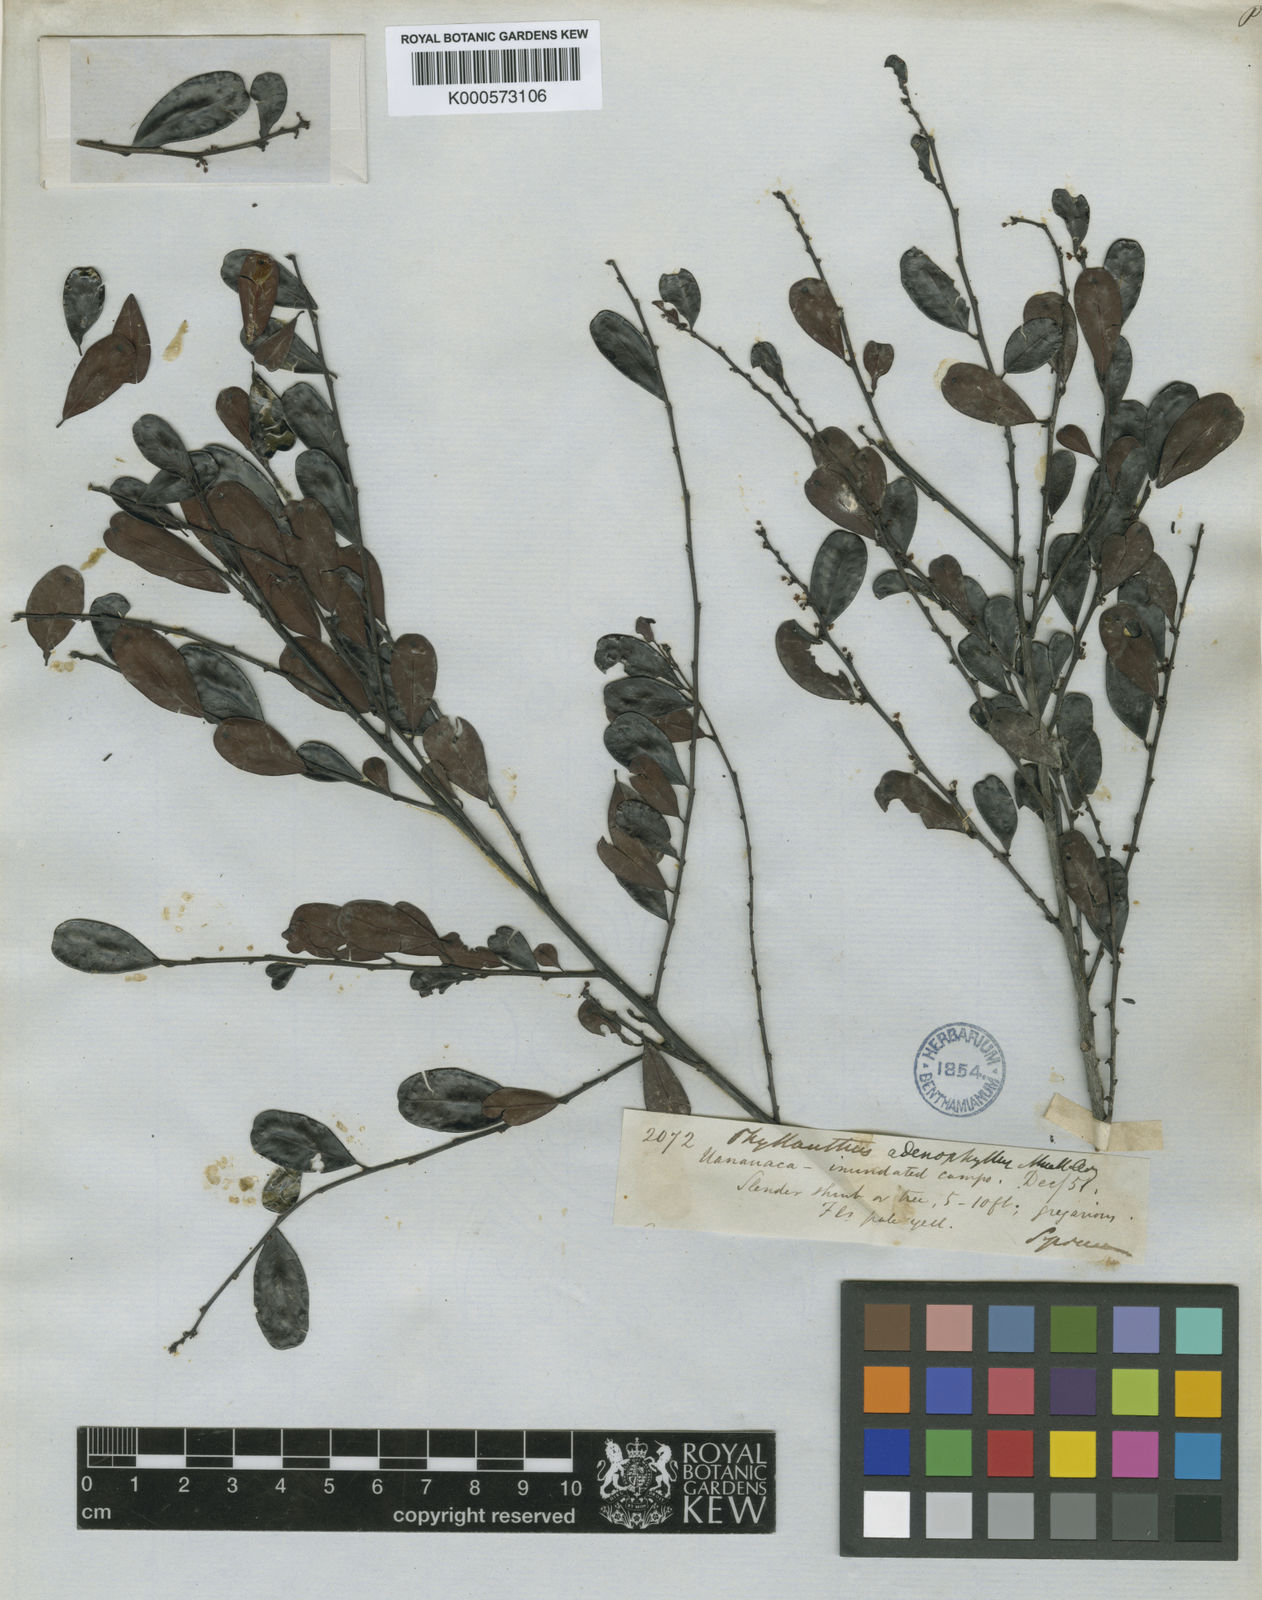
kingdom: Plantae
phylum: Tracheophyta
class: Magnoliopsida
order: Malpighiales
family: Phyllanthaceae
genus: Phyllanthus
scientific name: Phyllanthus
